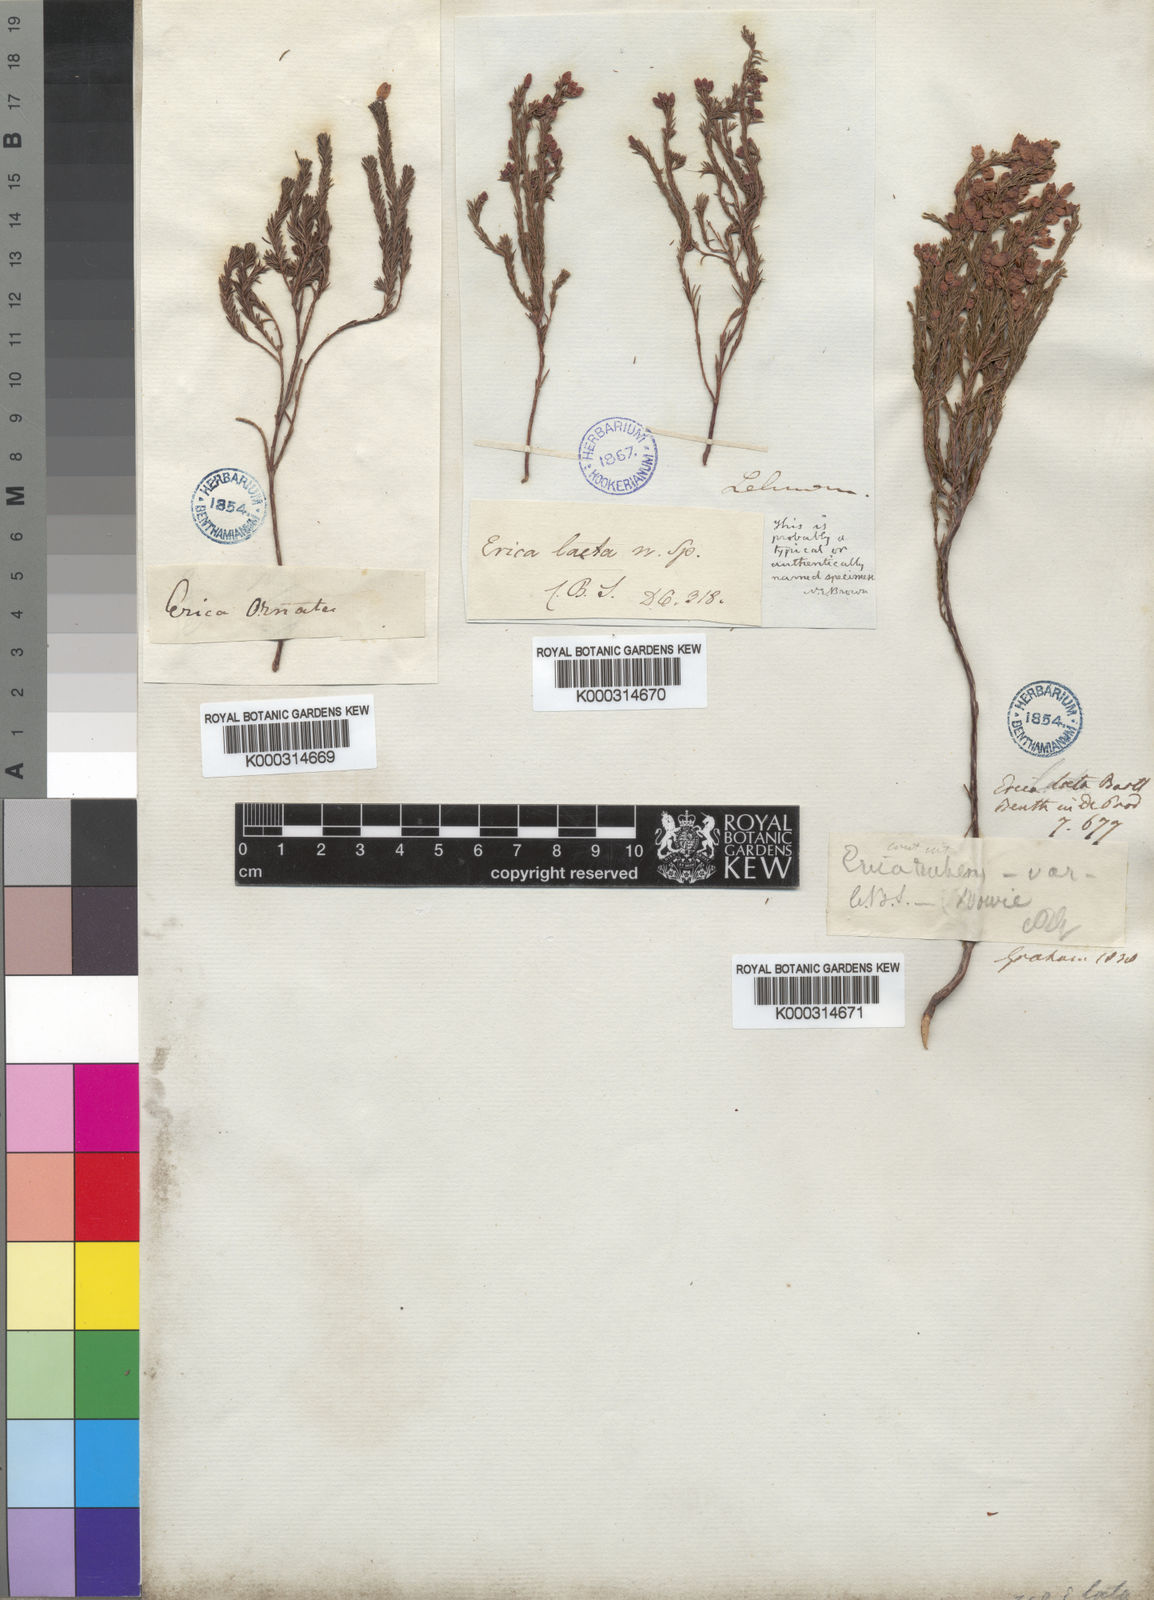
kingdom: Plantae
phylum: Tracheophyta
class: Magnoliopsida
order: Ericales
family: Ericaceae
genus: Erica
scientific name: Erica laeta
